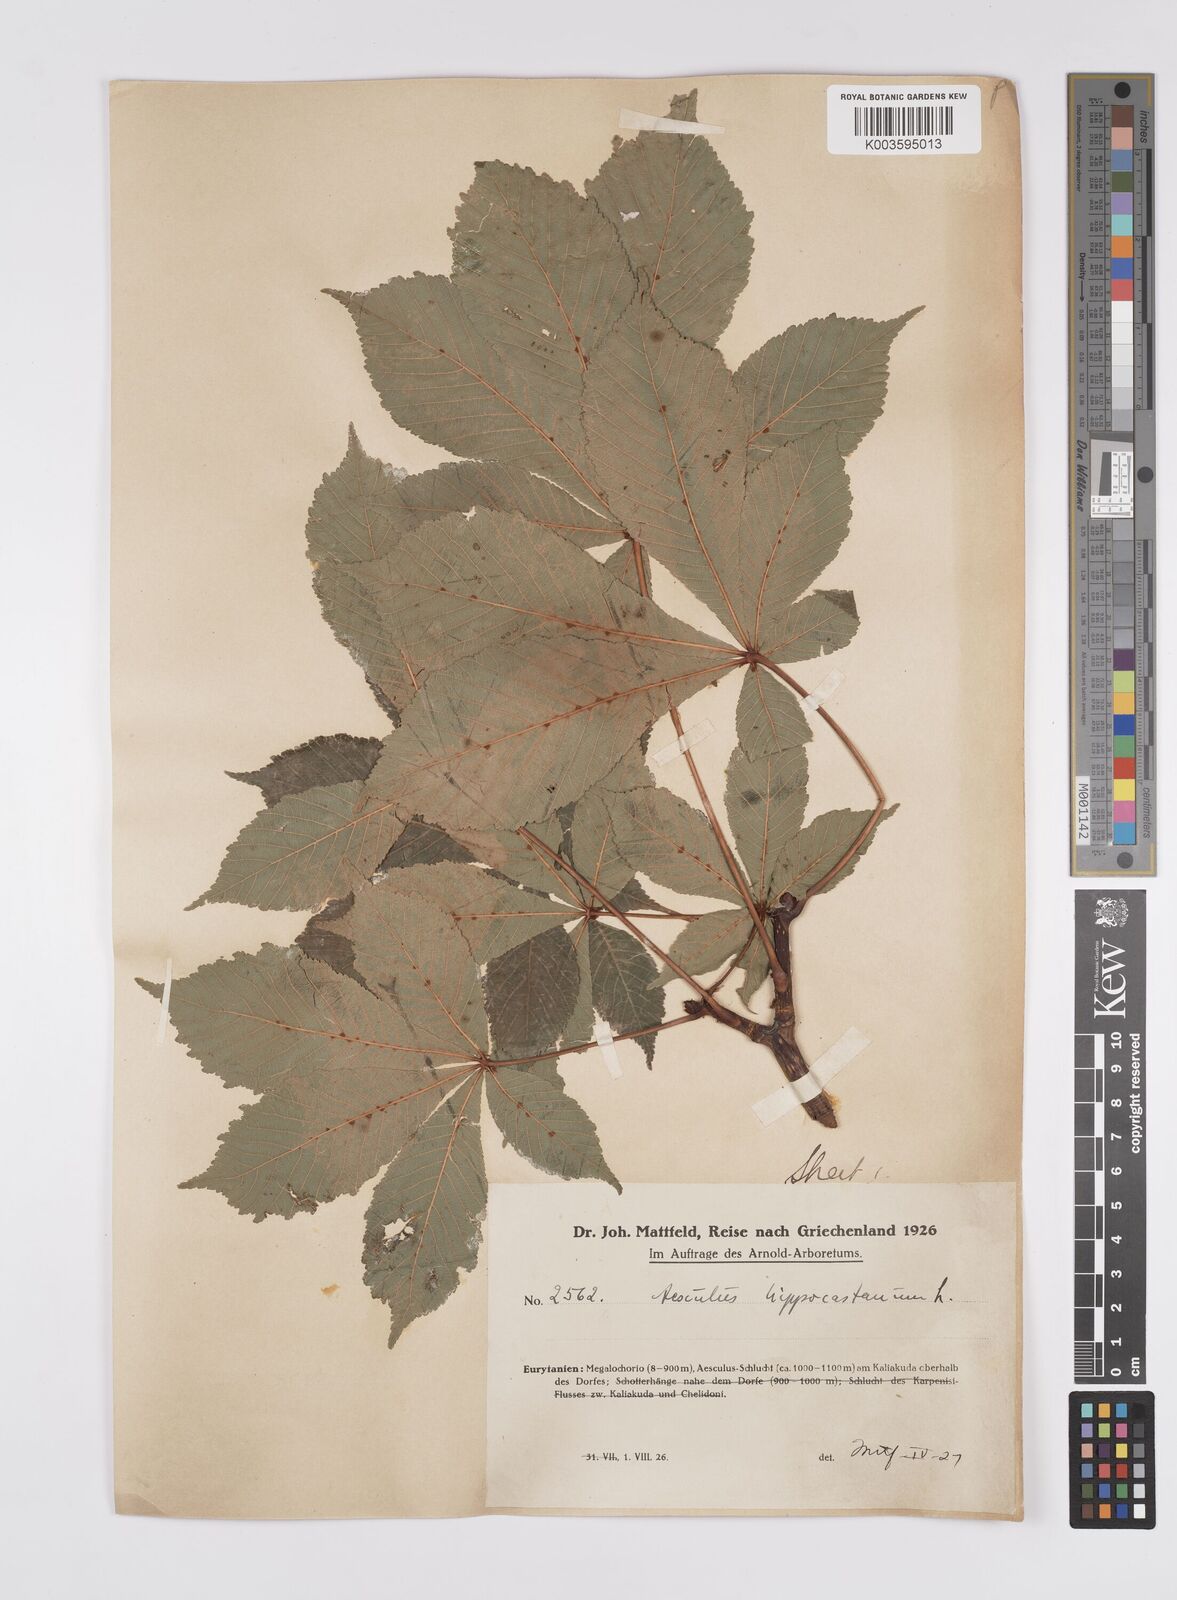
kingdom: Plantae
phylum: Tracheophyta
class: Magnoliopsida
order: Sapindales
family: Sapindaceae
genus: Aesculus
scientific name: Aesculus hippocastanum
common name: Horse-chestnut
